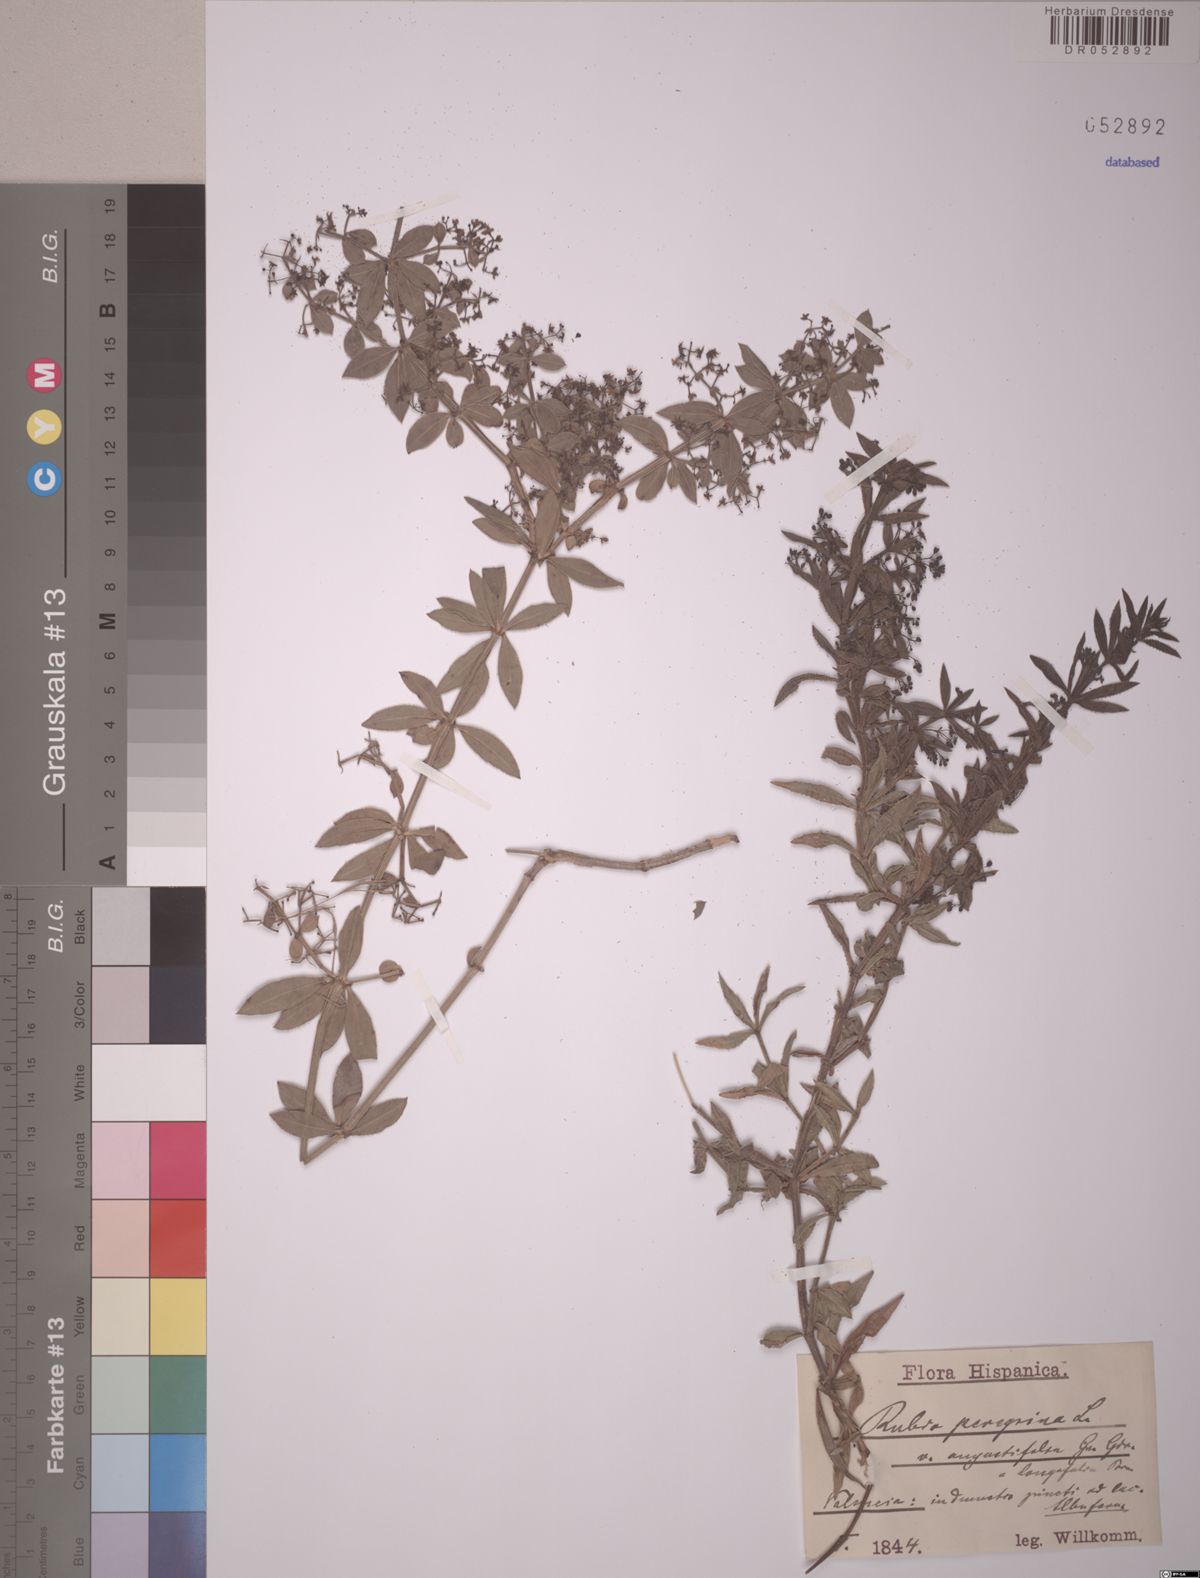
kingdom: Plantae
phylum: Tracheophyta
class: Magnoliopsida
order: Gentianales
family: Rubiaceae
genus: Rubia
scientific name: Rubia peregrina
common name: Wild madder
